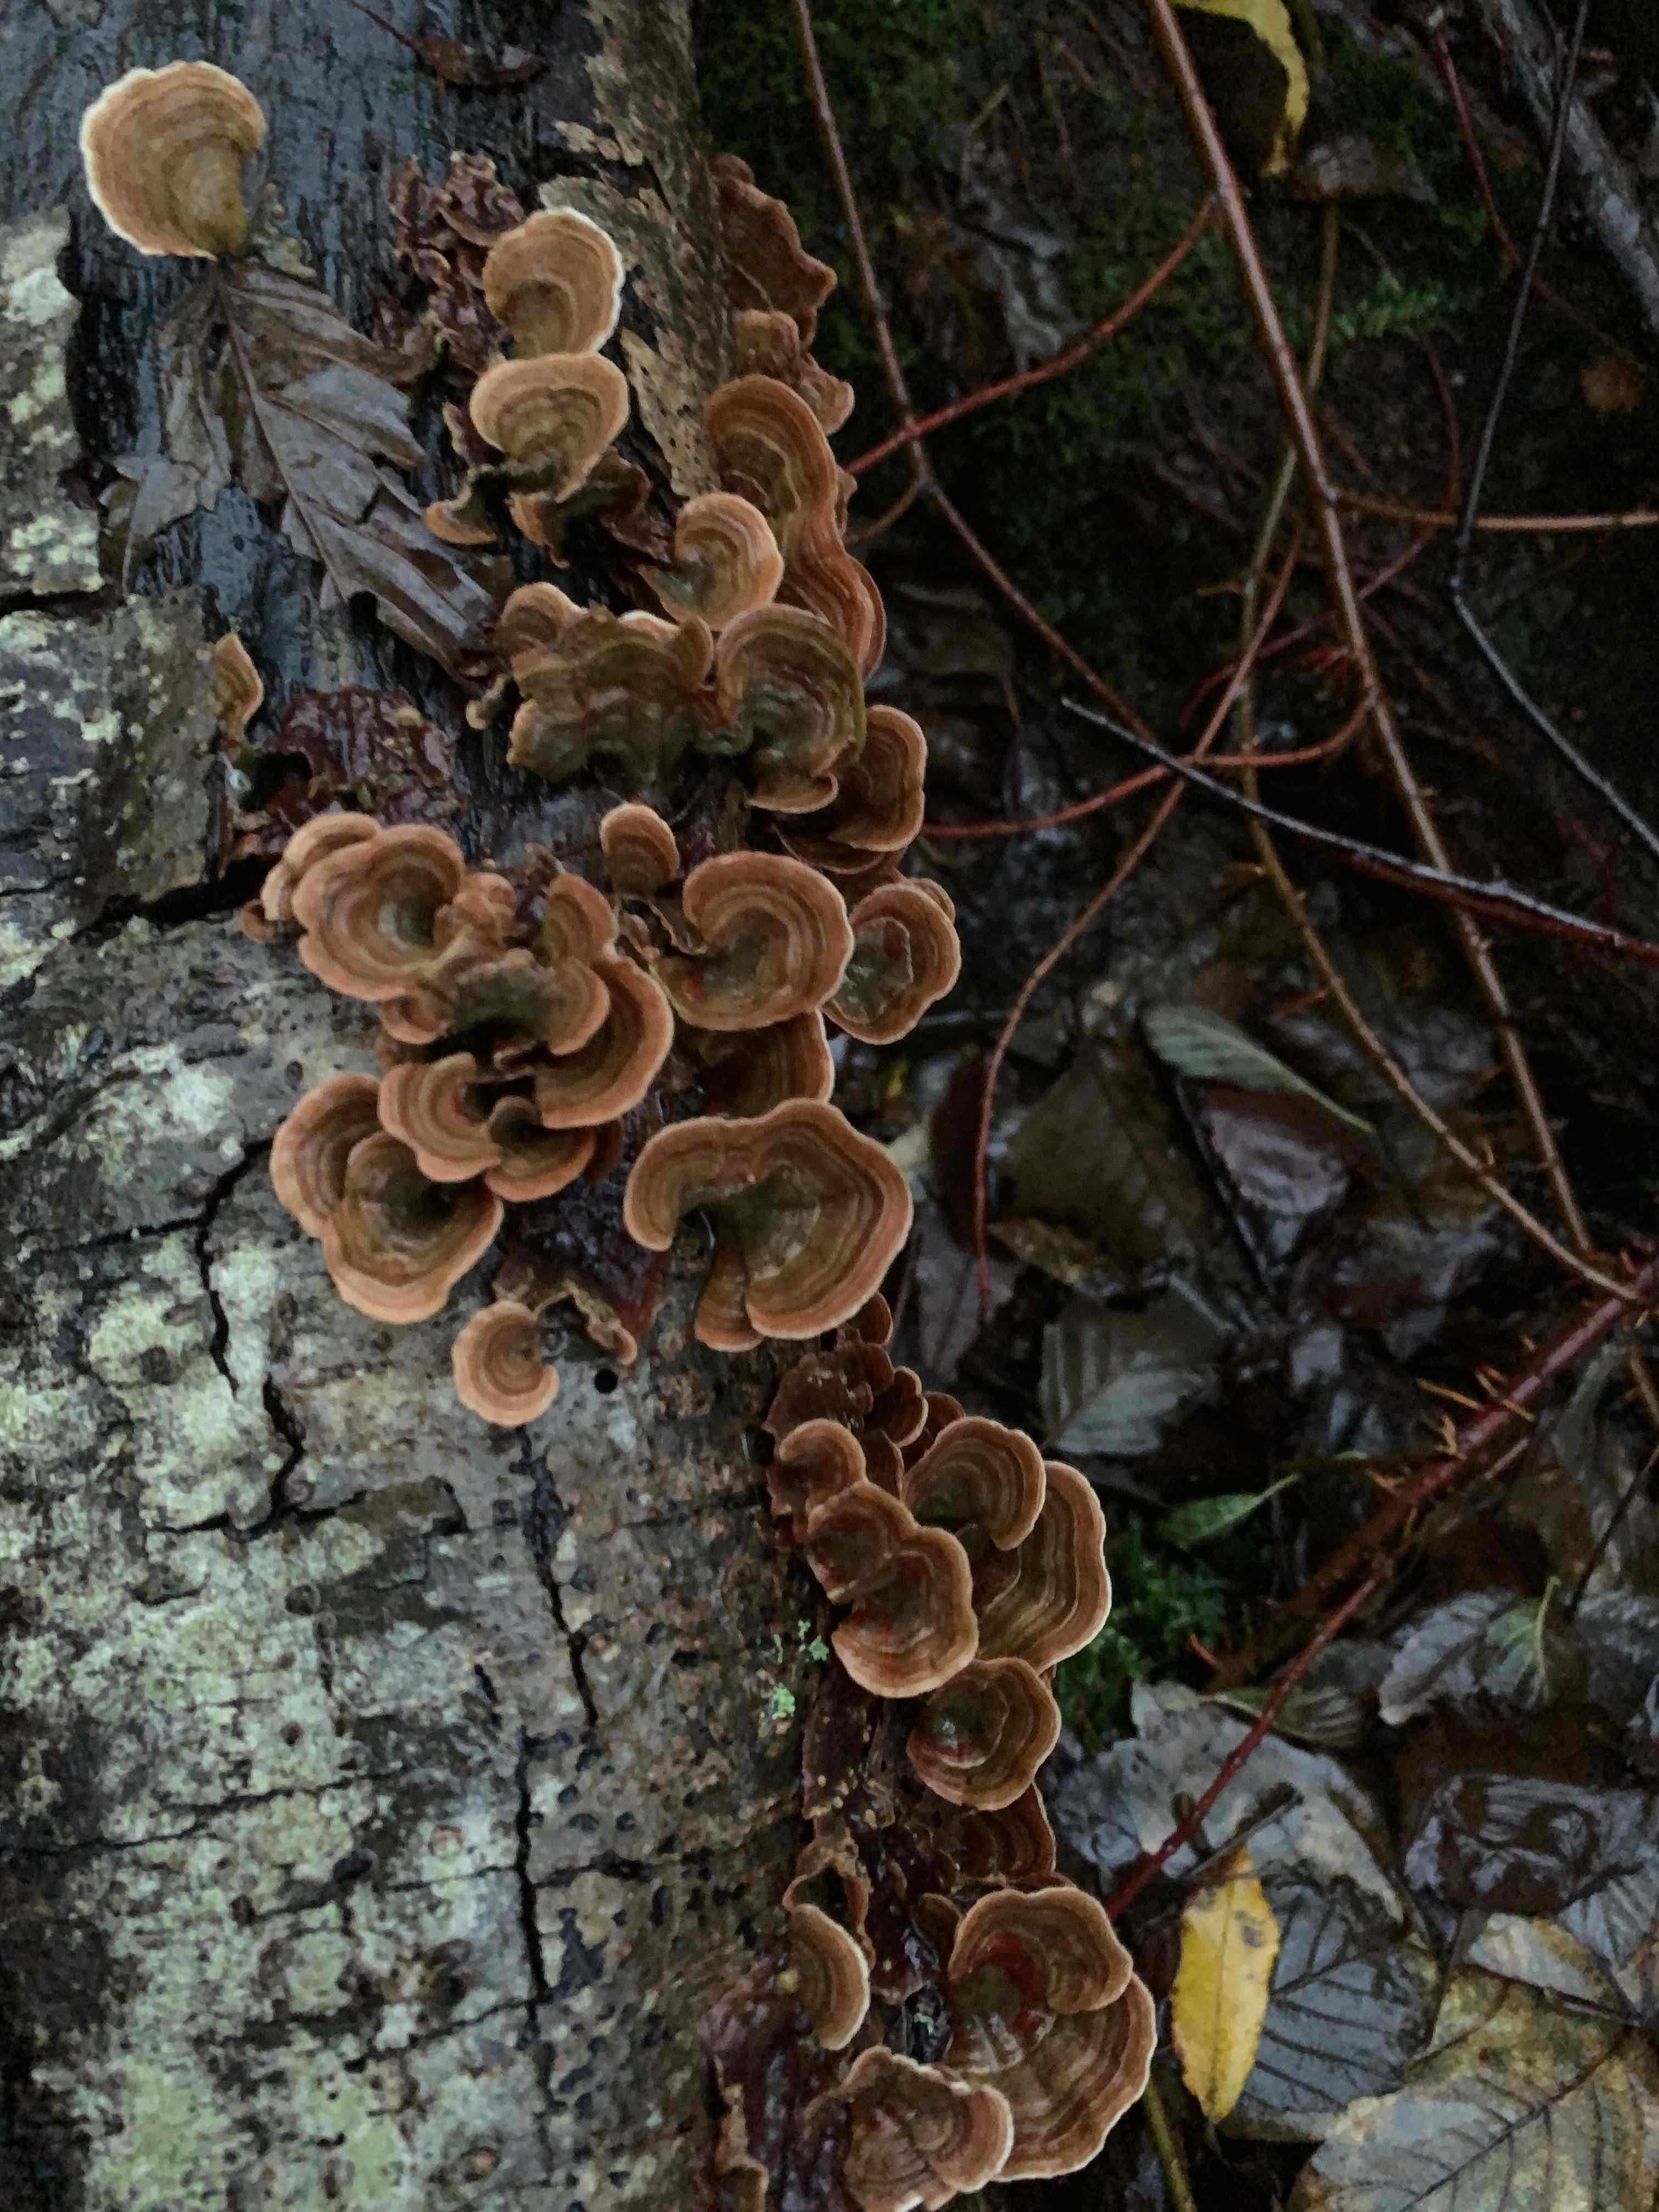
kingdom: Fungi
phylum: Basidiomycota
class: Agaricomycetes
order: Russulales
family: Stereaceae
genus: Stereum
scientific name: Stereum subtomentosum
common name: smuk lædersvamp
